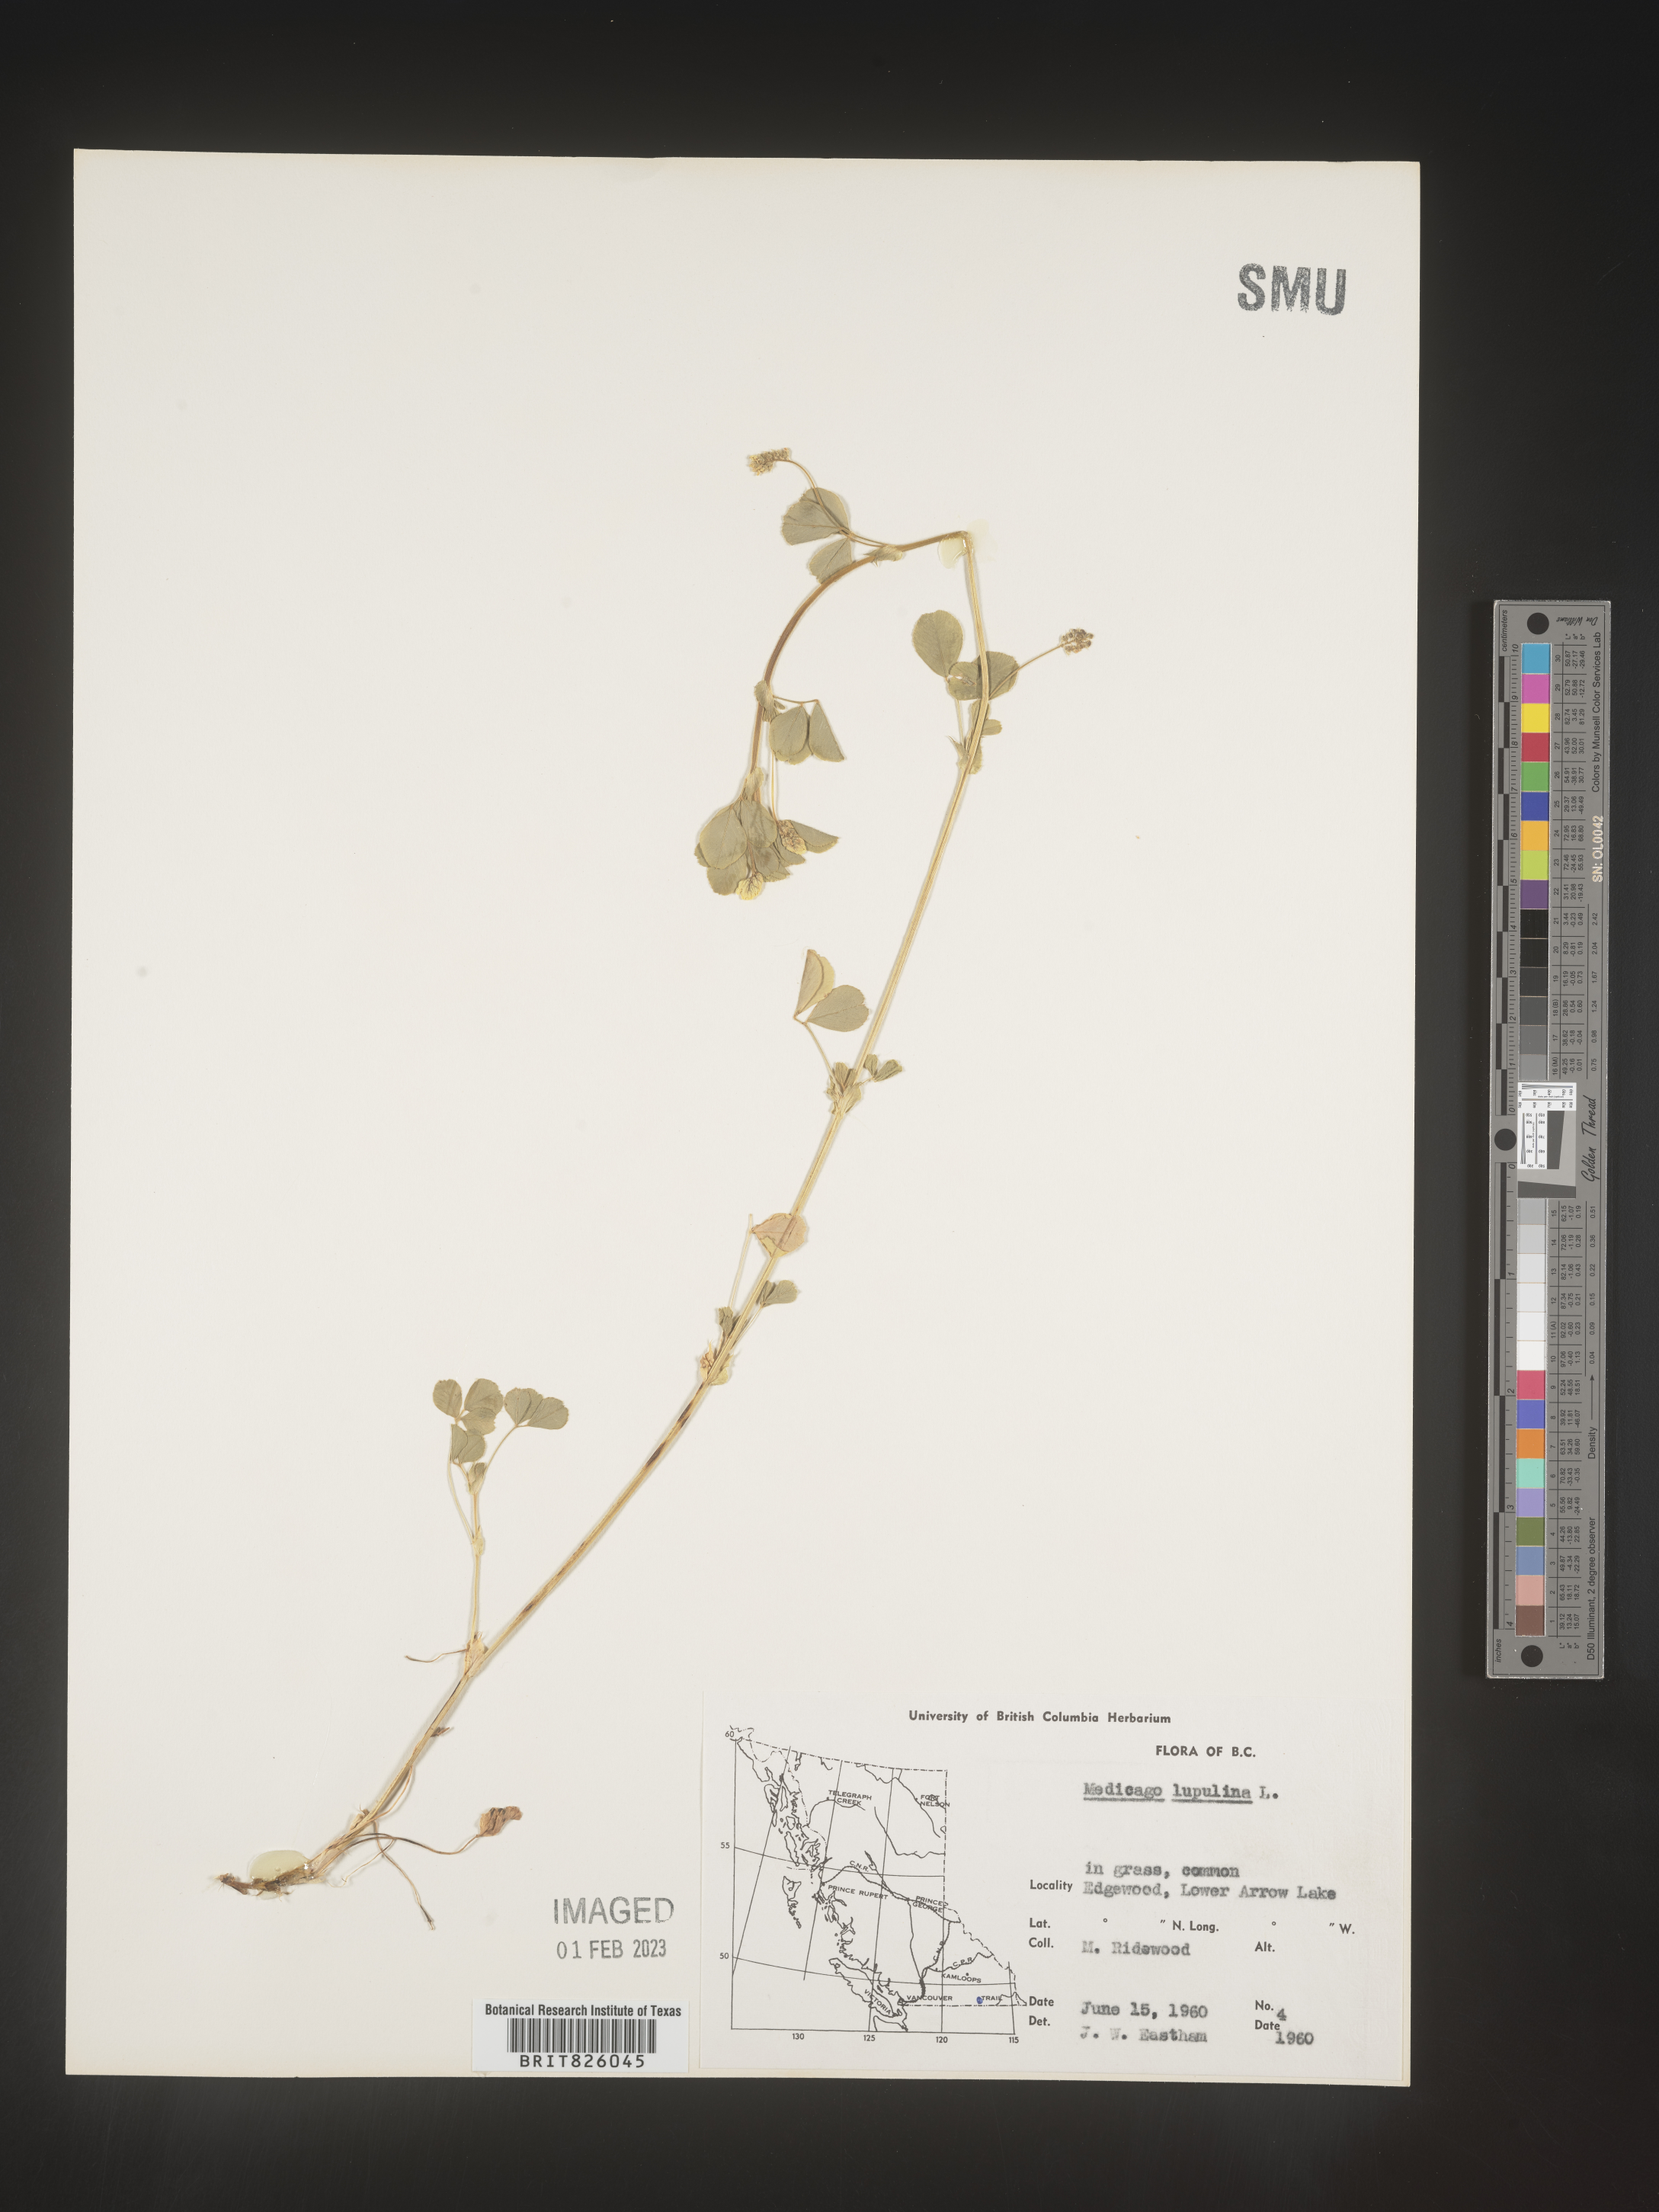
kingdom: Plantae
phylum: Tracheophyta
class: Magnoliopsida
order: Fabales
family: Fabaceae
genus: Medicago
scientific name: Medicago lupulina
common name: Black medick
